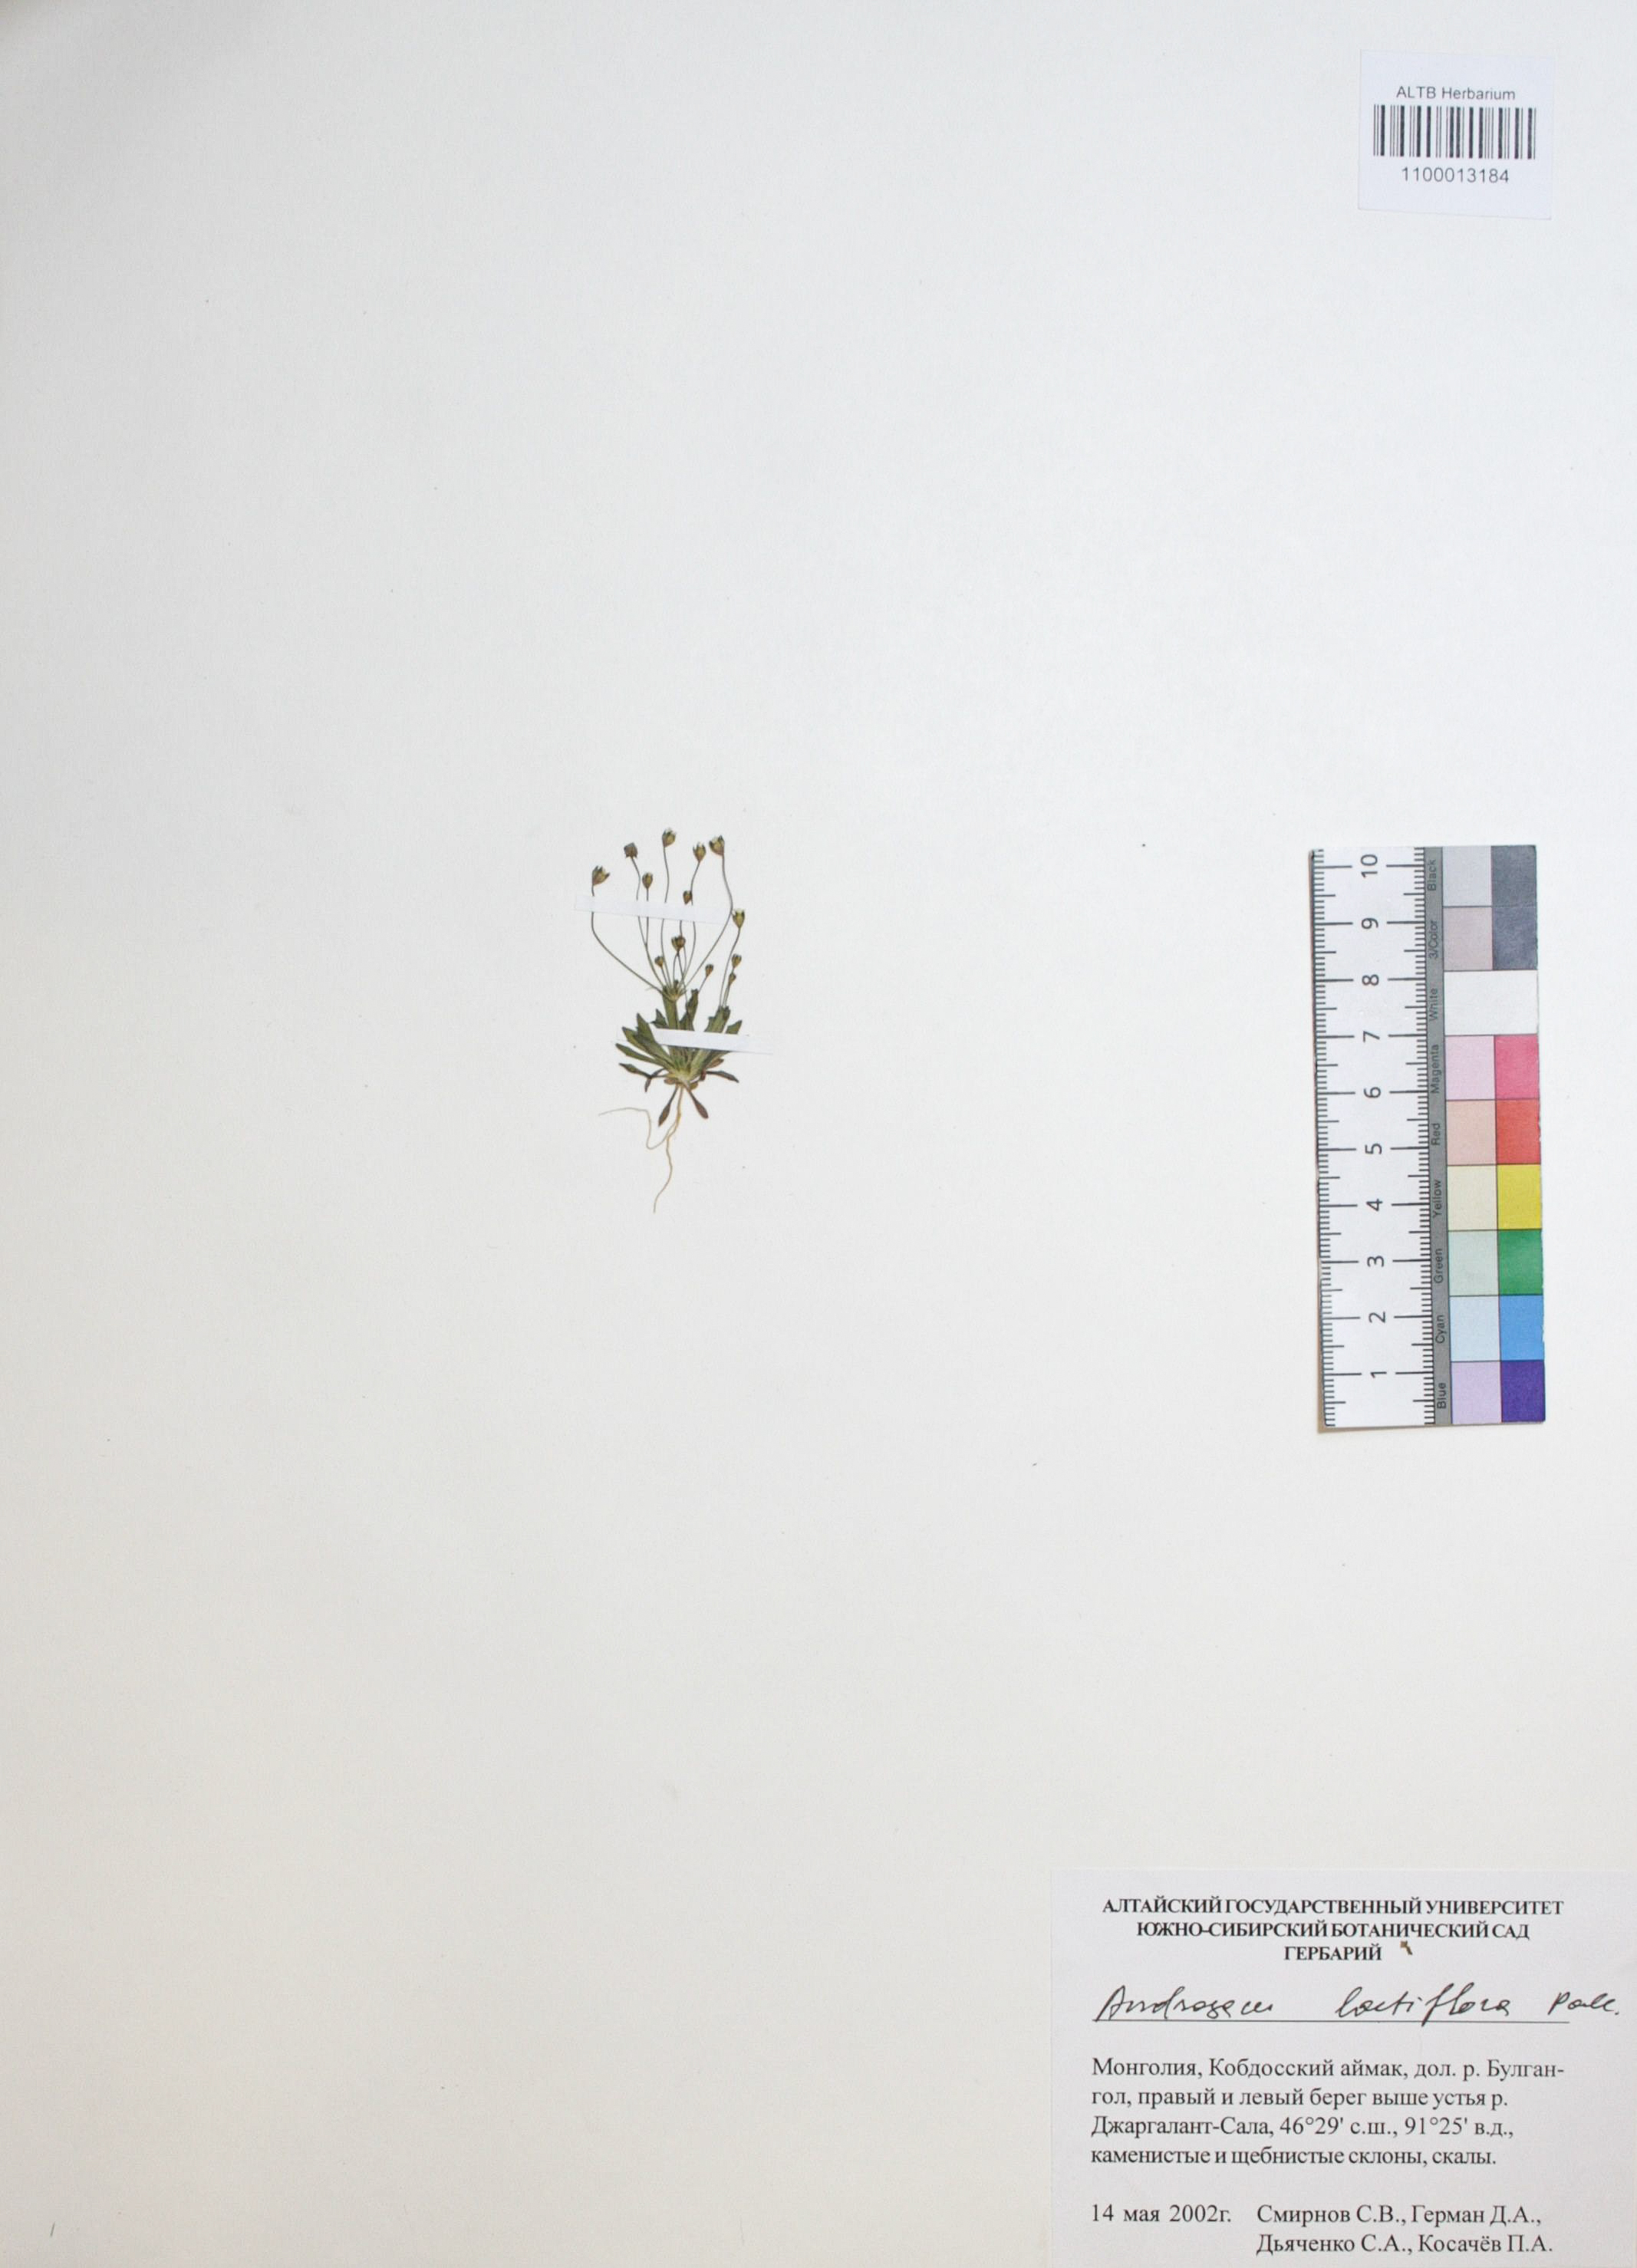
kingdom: Plantae
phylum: Tracheophyta
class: Magnoliopsida
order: Ericales
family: Primulaceae
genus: Androsace
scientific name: Androsace lactiflora
